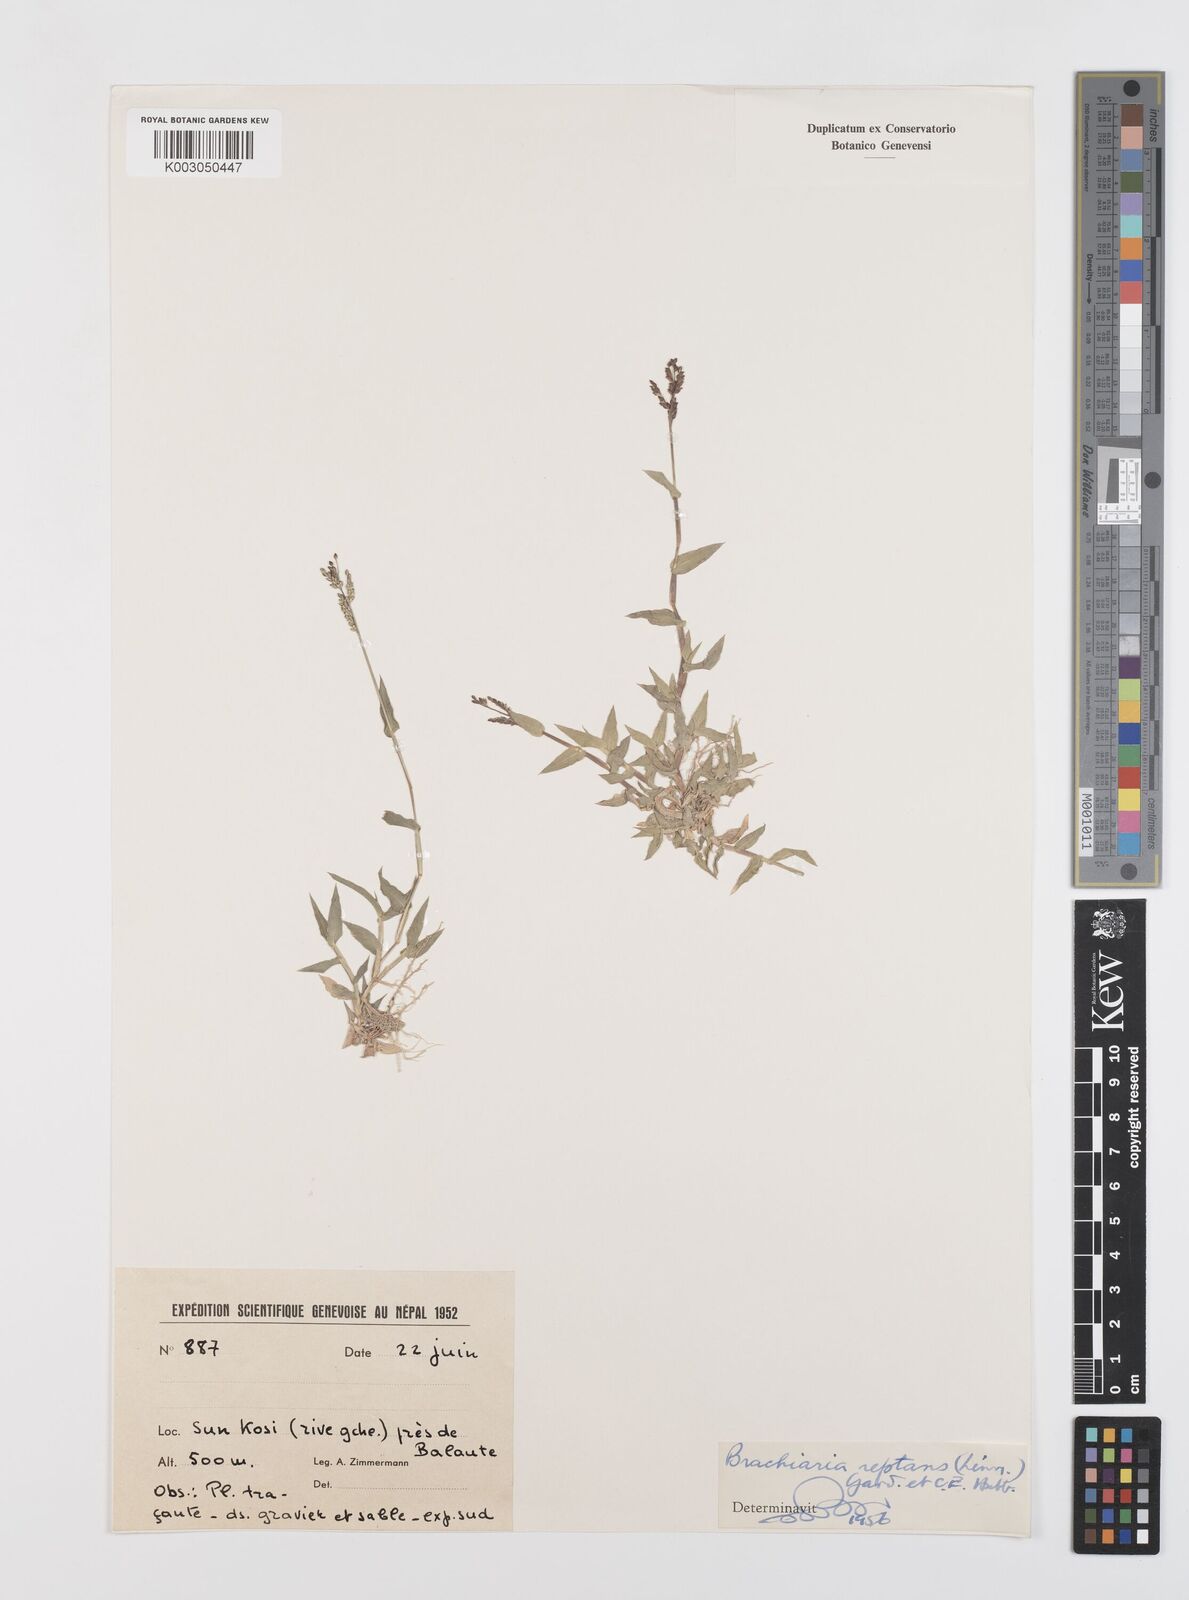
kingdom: Plantae
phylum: Tracheophyta
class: Liliopsida
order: Poales
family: Poaceae
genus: Urochloa
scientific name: Urochloa reptans
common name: Sprawling signalgrass
